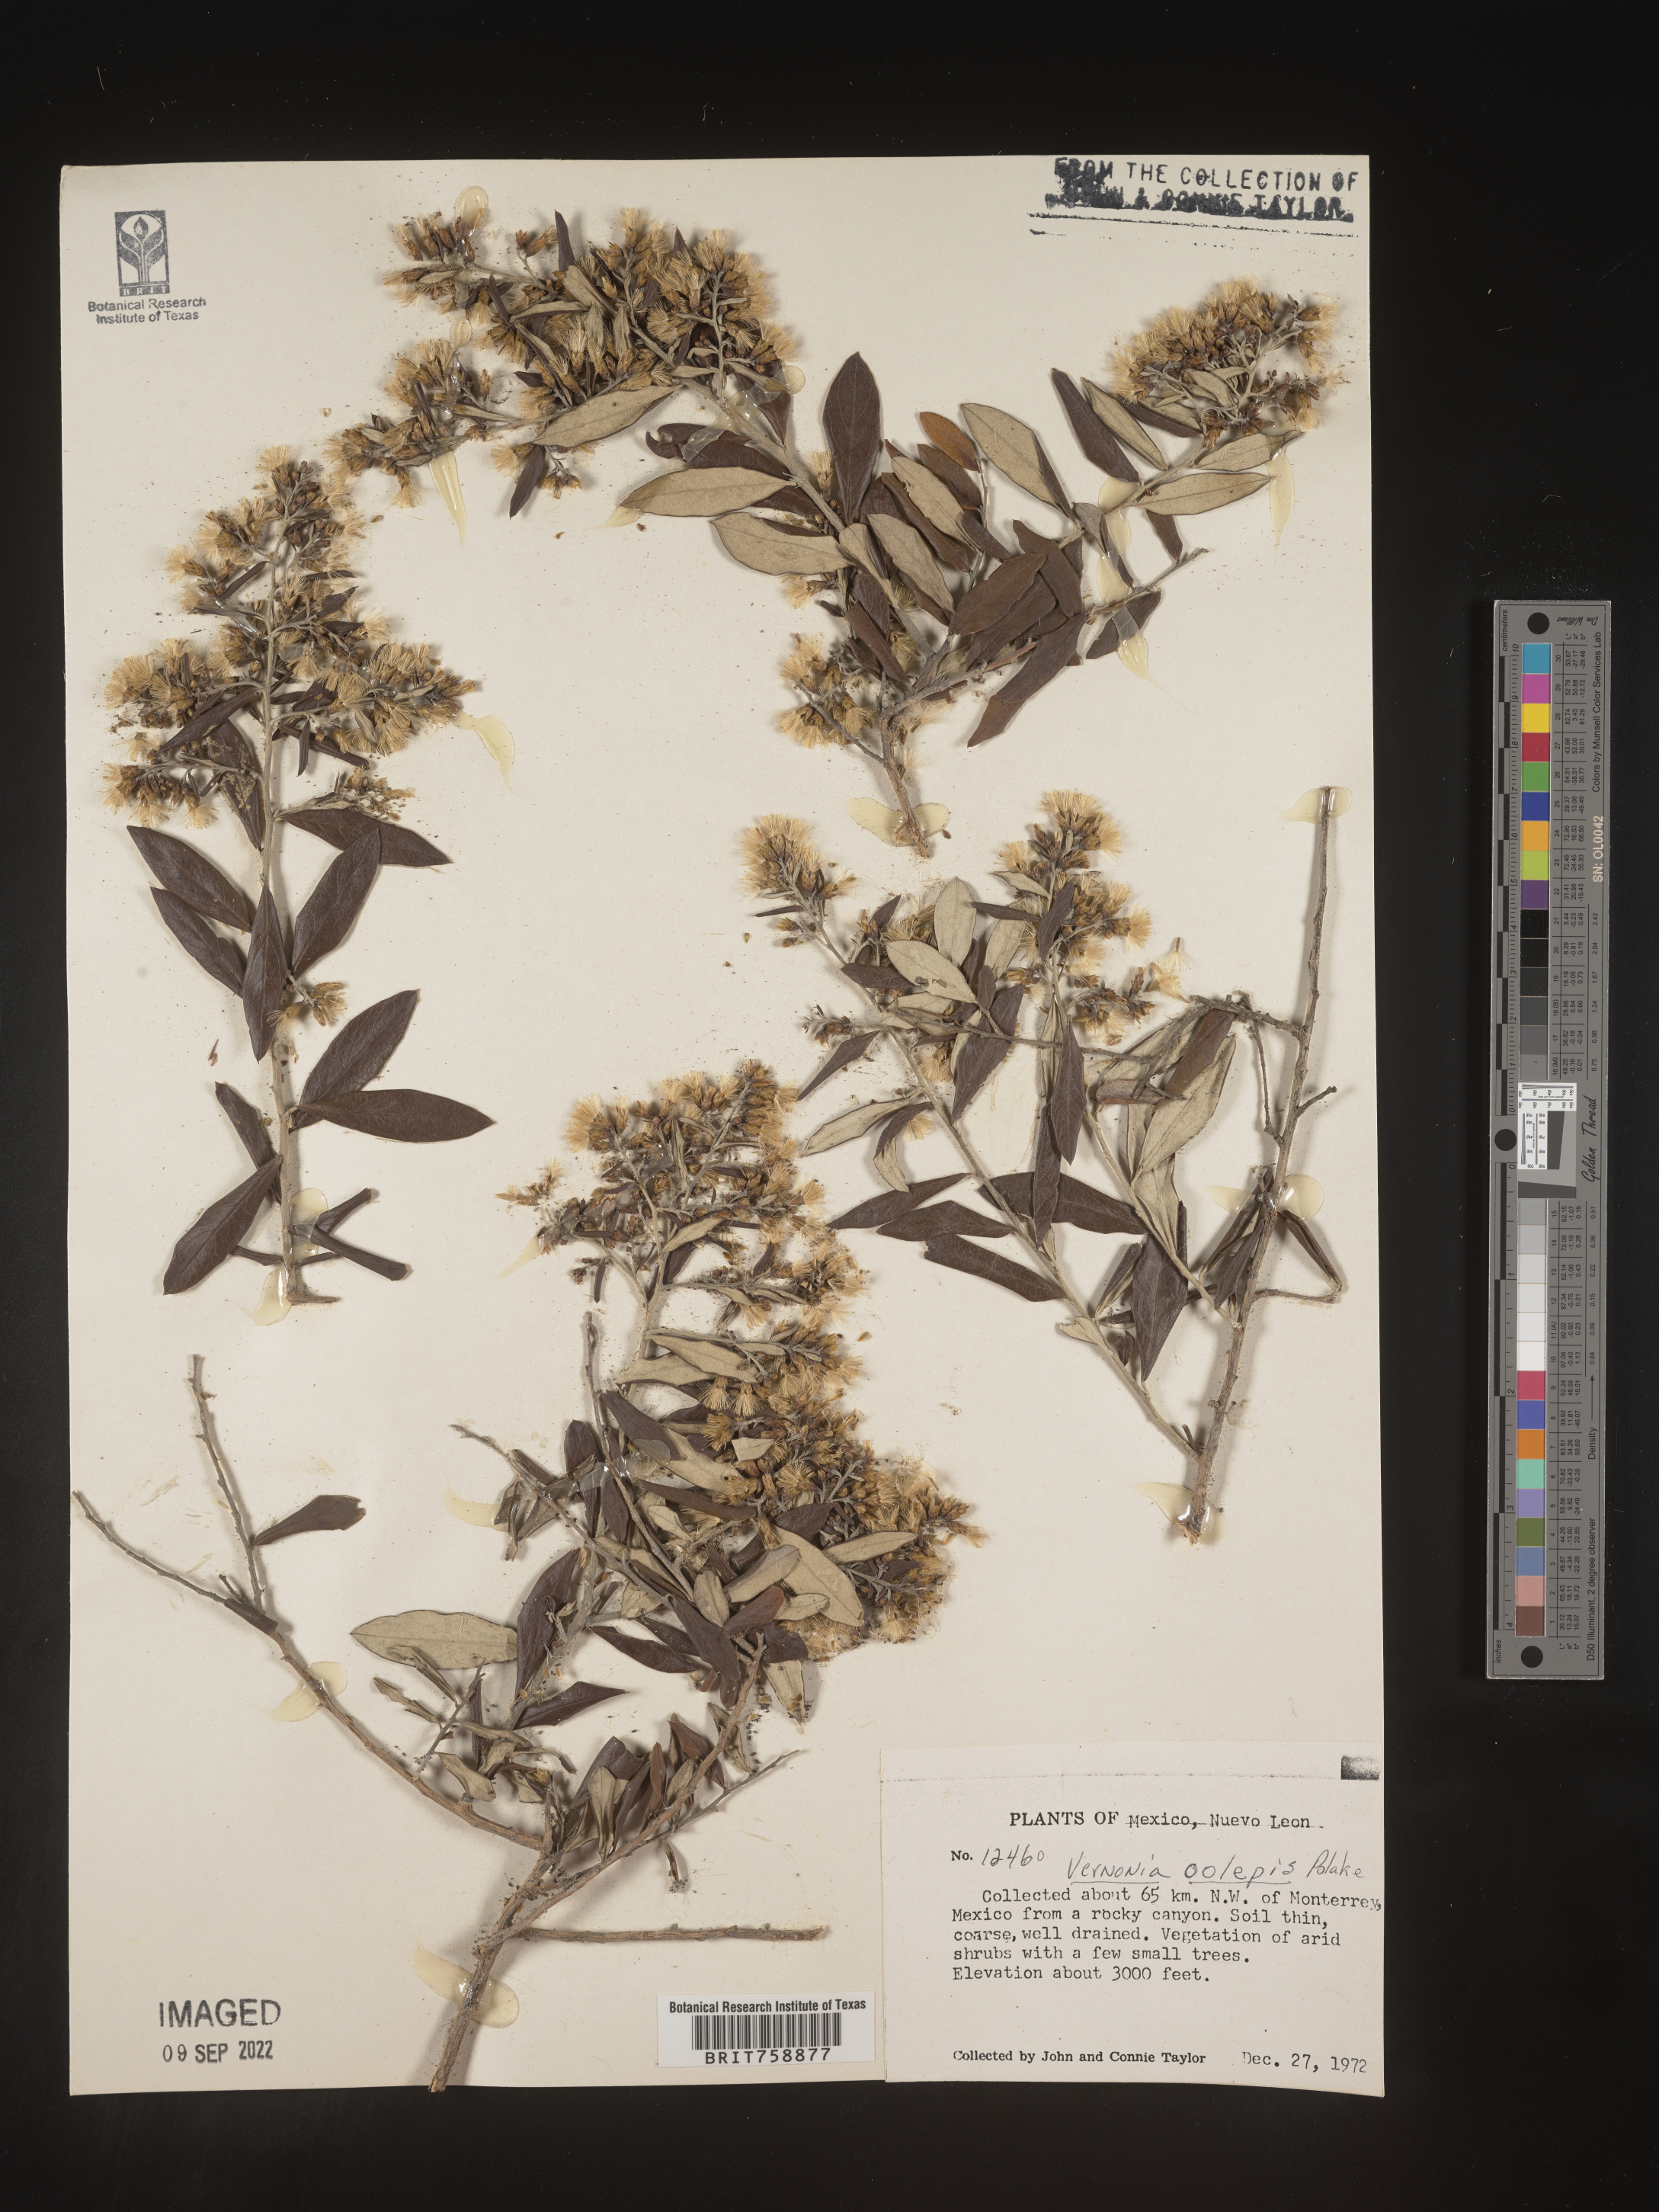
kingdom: Plantae
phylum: Tracheophyta
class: Magnoliopsida
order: Asterales
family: Asteraceae
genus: Vernonia
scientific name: Vernonia
